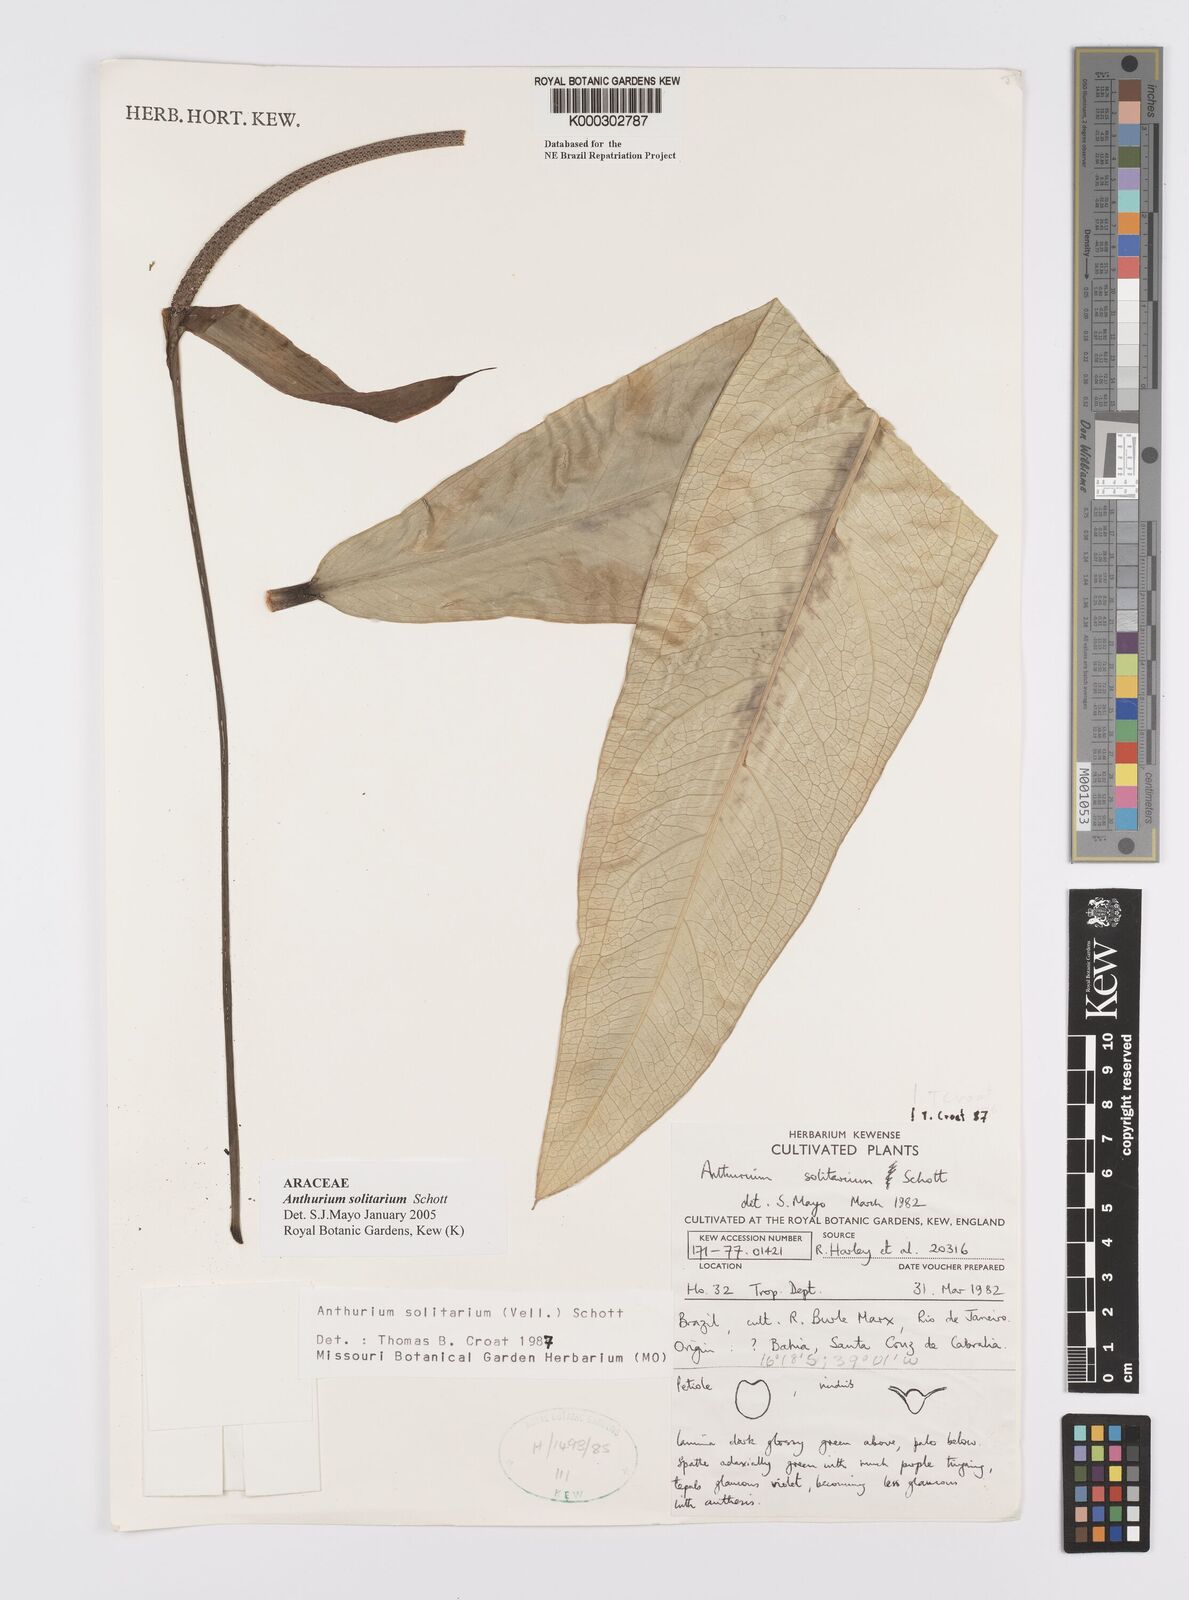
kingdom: Plantae
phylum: Tracheophyta
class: Liliopsida
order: Alismatales
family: Araceae
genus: Anthurium
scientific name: Anthurium solitarium
